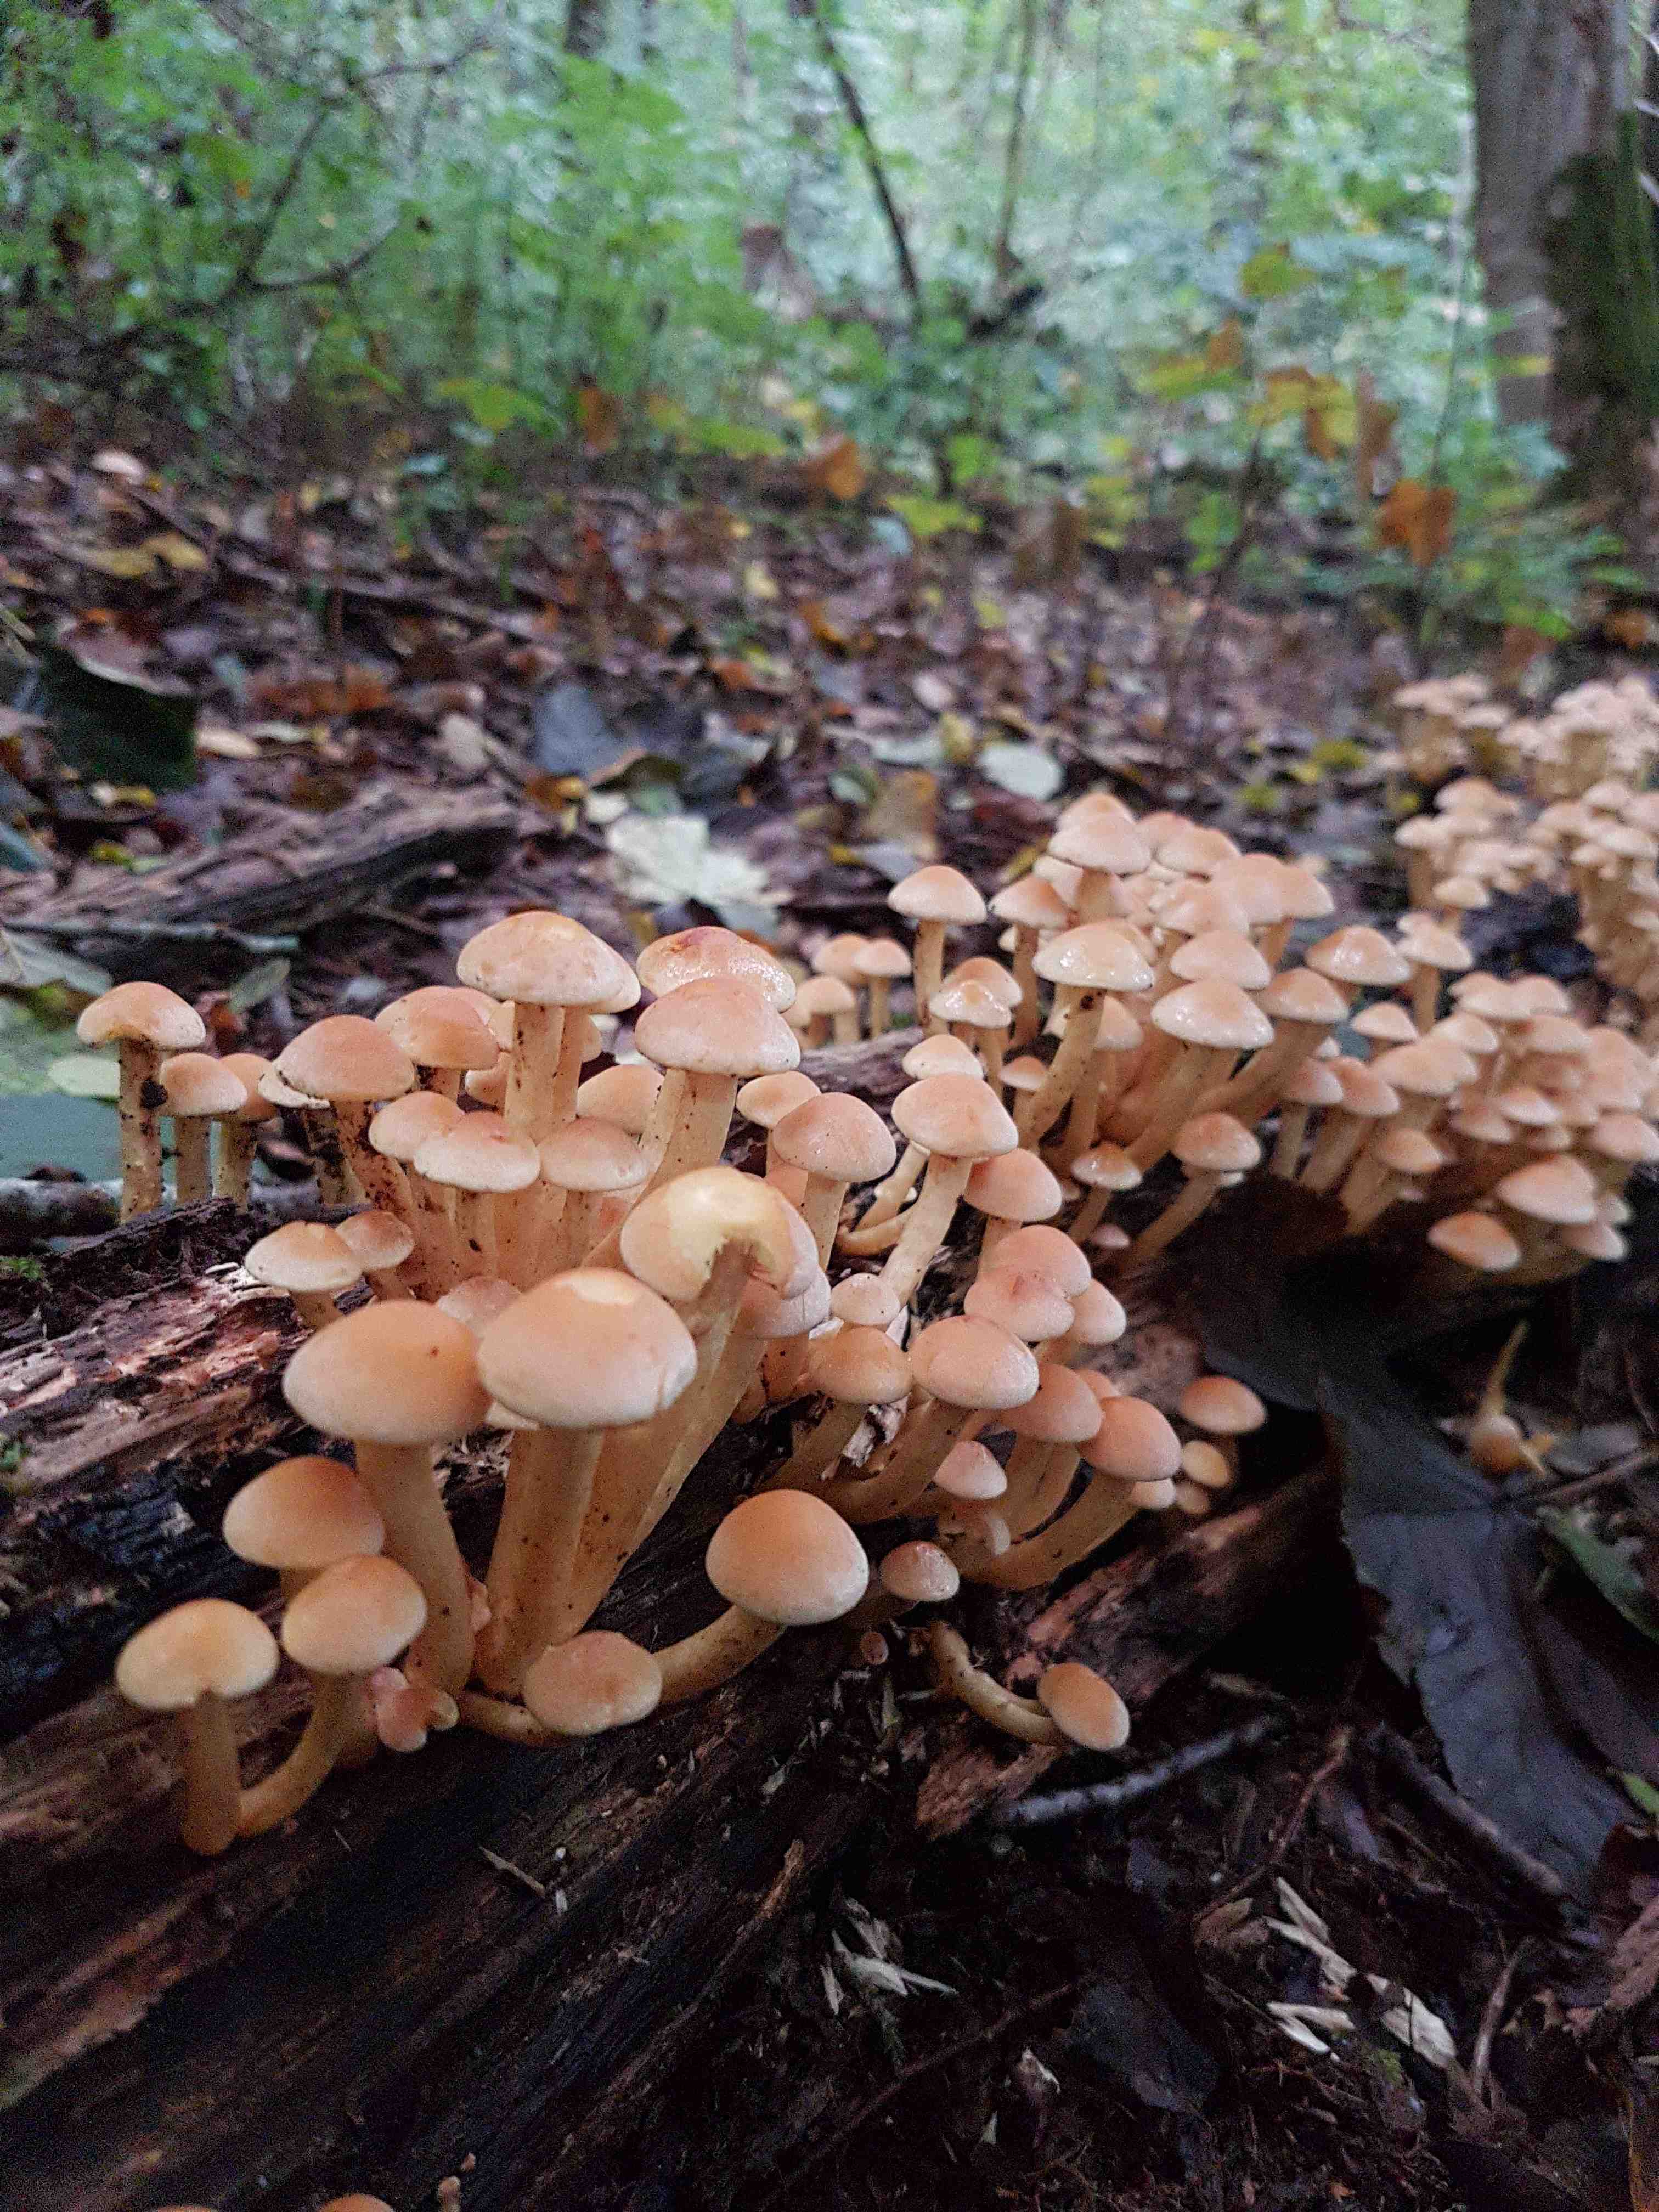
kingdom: Fungi
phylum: Basidiomycota
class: Agaricomycetes
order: Agaricales
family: Strophariaceae
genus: Hypholoma
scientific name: Hypholoma fasciculare
